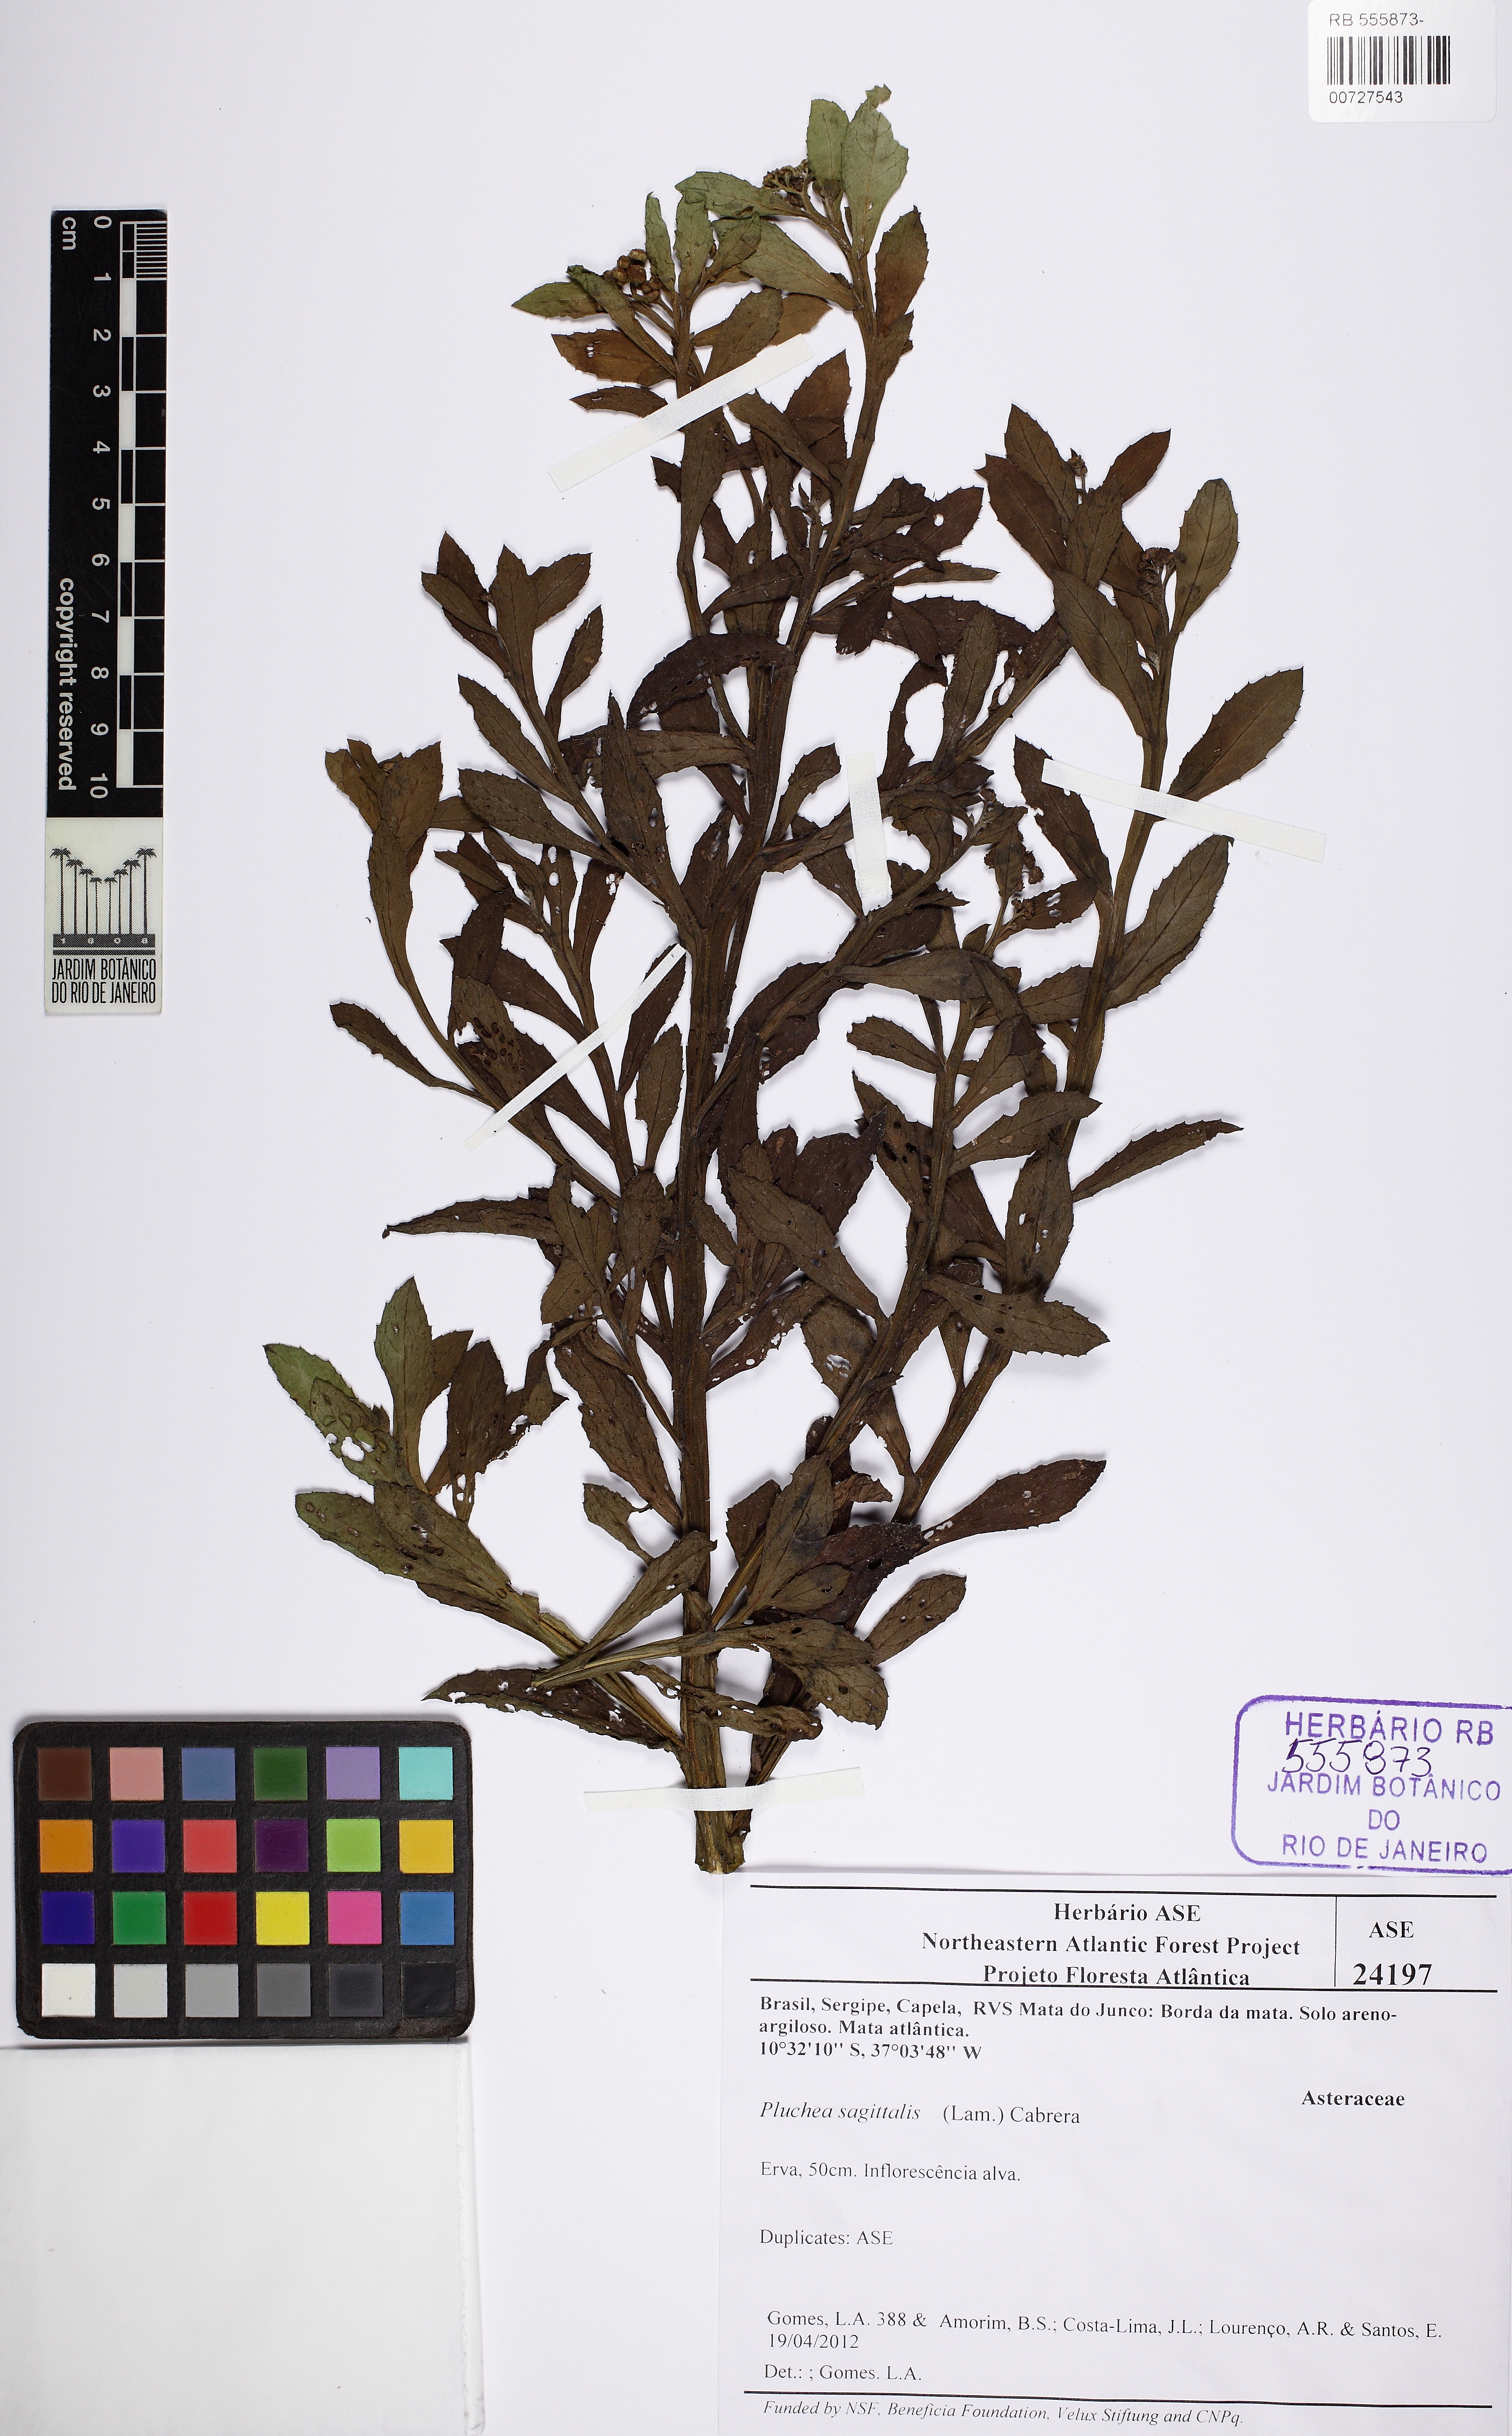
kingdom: Plantae
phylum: Tracheophyta
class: Magnoliopsida
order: Asterales
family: Asteraceae
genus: Pluchea
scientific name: Pluchea sagittalis
